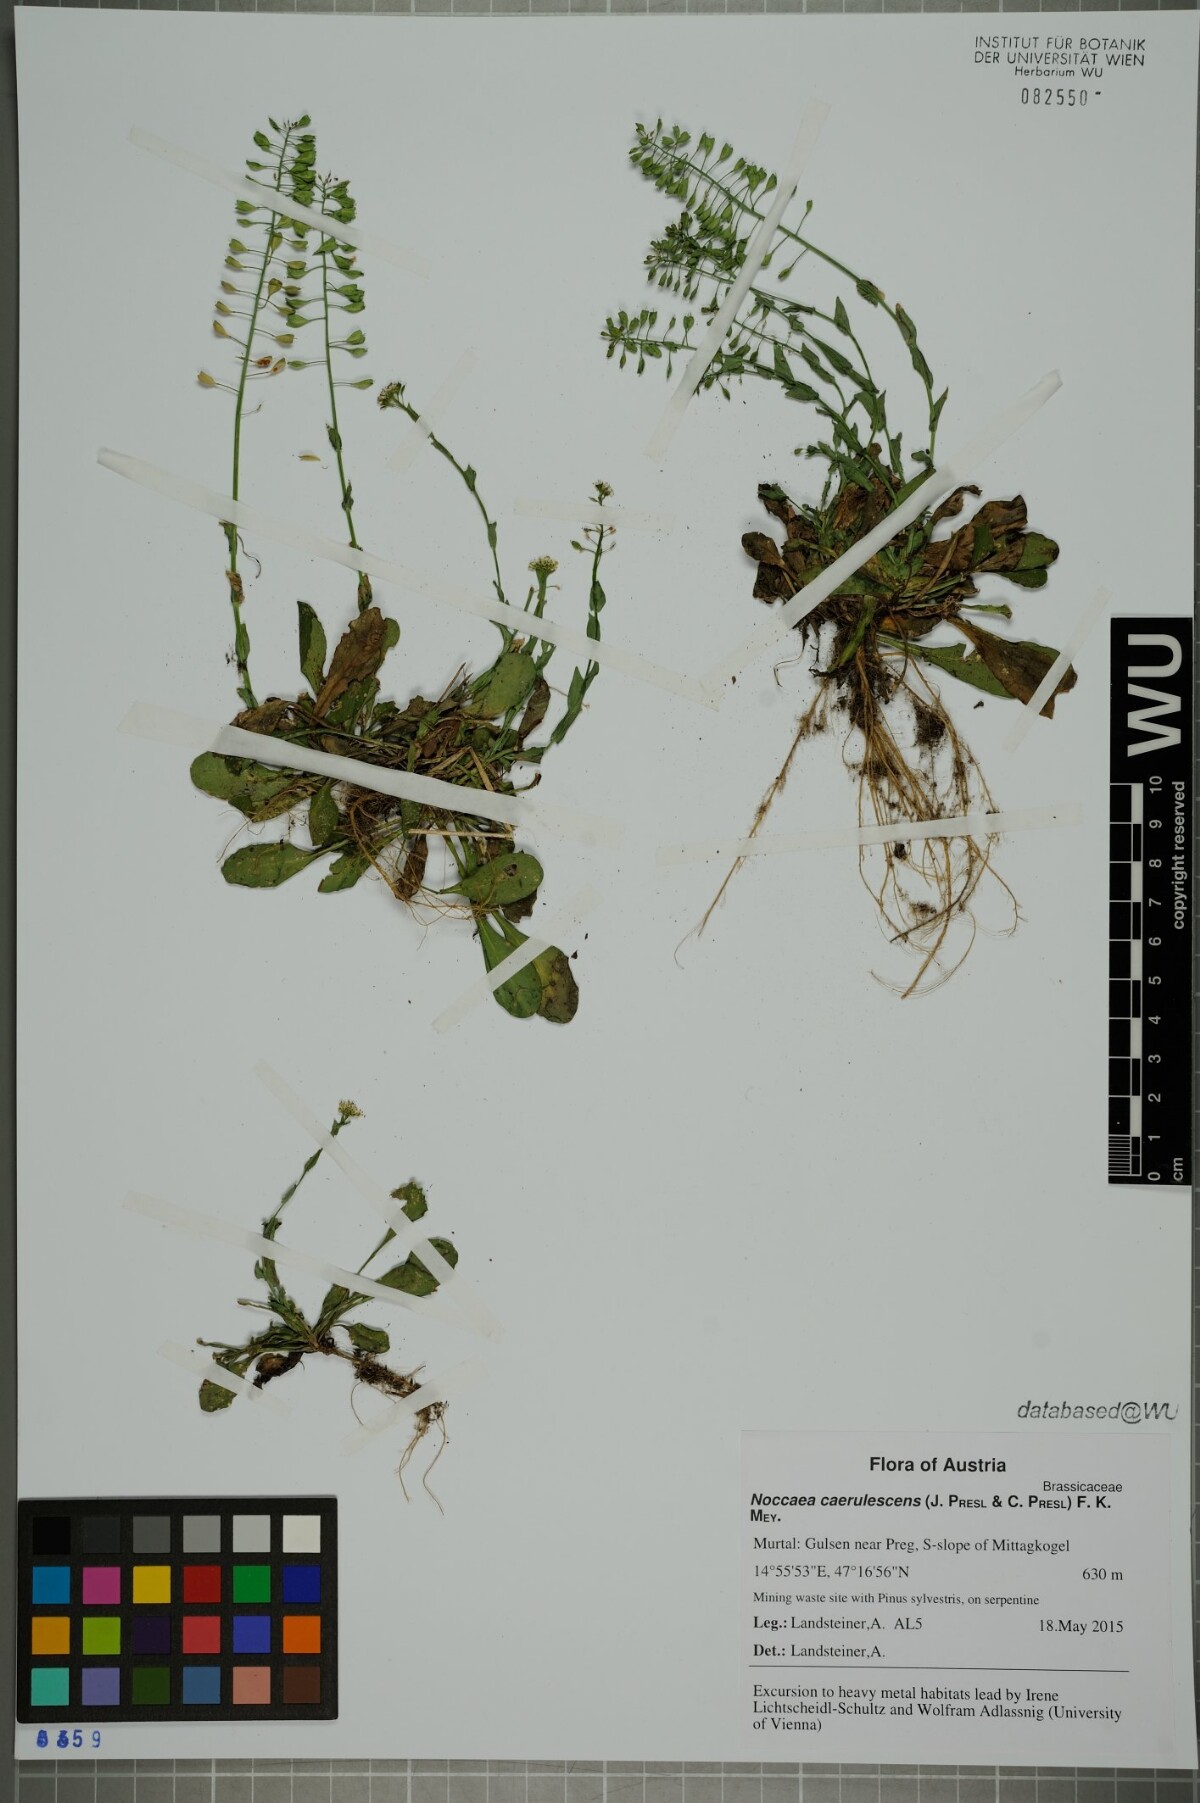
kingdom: Plantae
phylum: Tracheophyta
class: Magnoliopsida
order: Brassicales
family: Brassicaceae
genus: Noccaea
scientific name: Noccaea caerulescens
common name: Alpine pennycress
